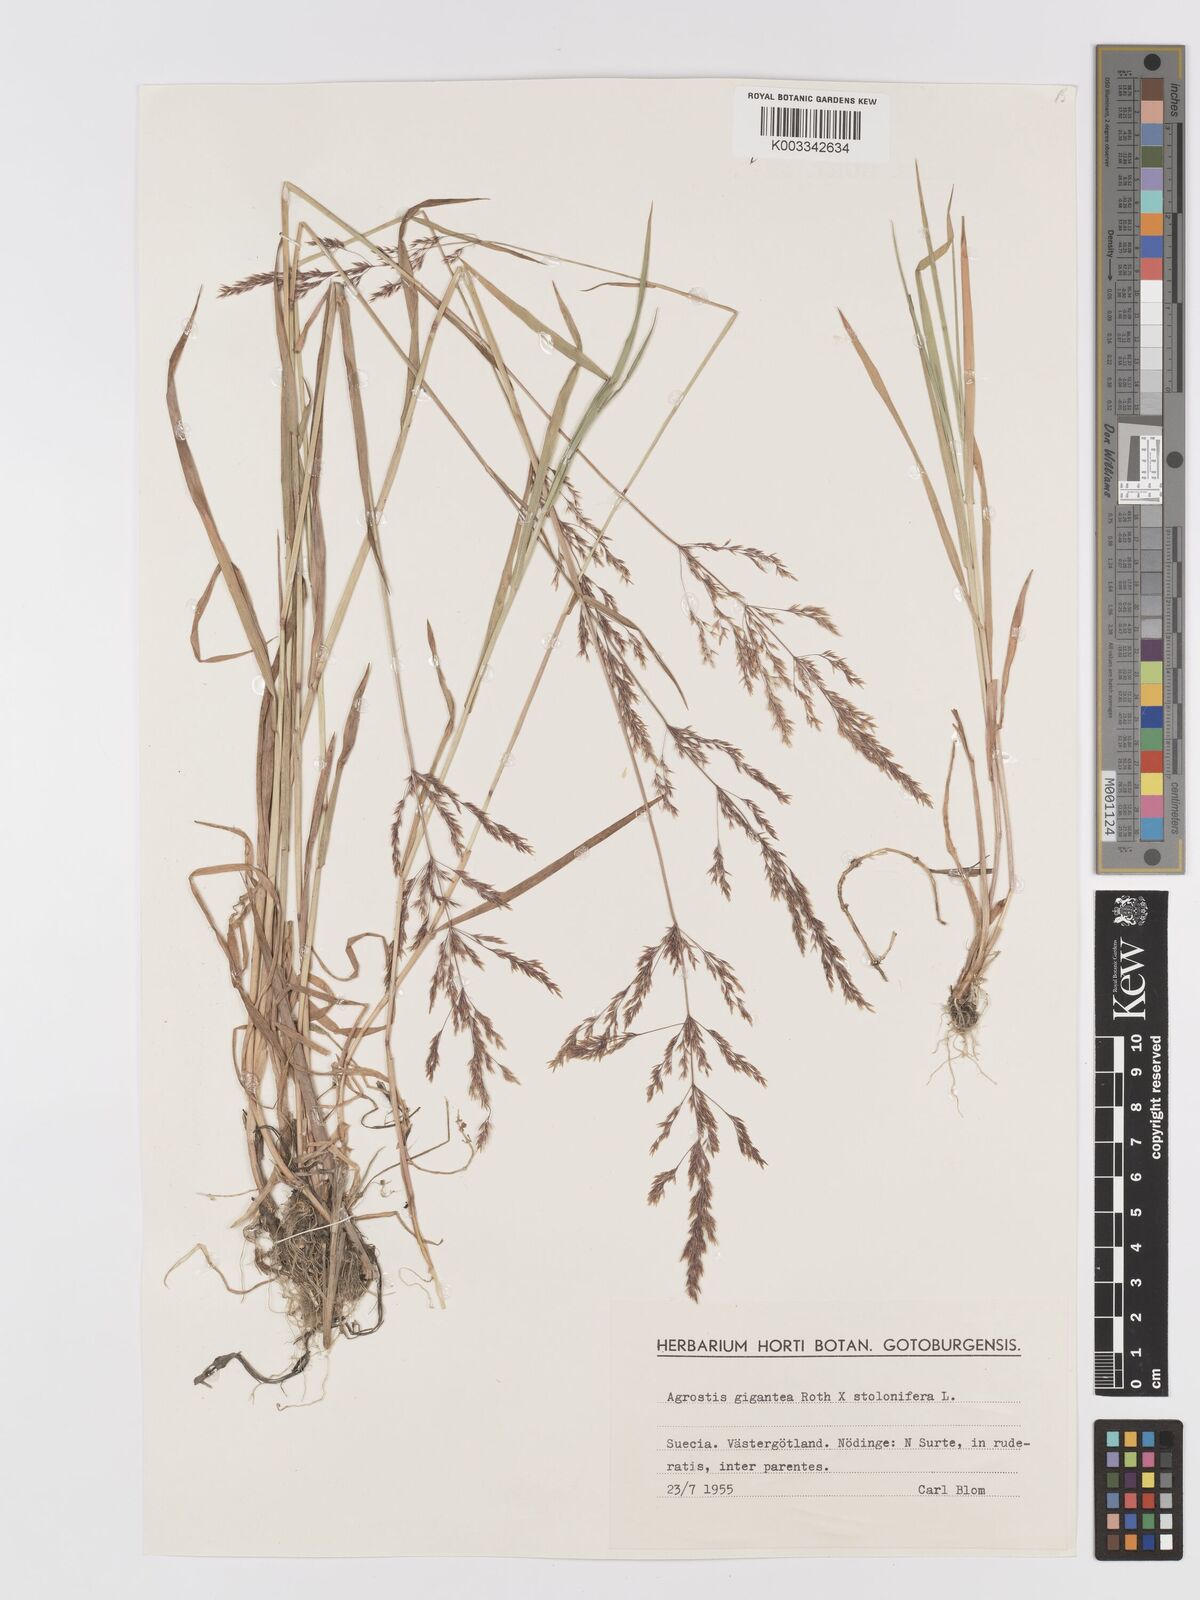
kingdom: Plantae
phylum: Tracheophyta
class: Liliopsida
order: Poales
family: Poaceae
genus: Agrostis
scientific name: Agrostis
